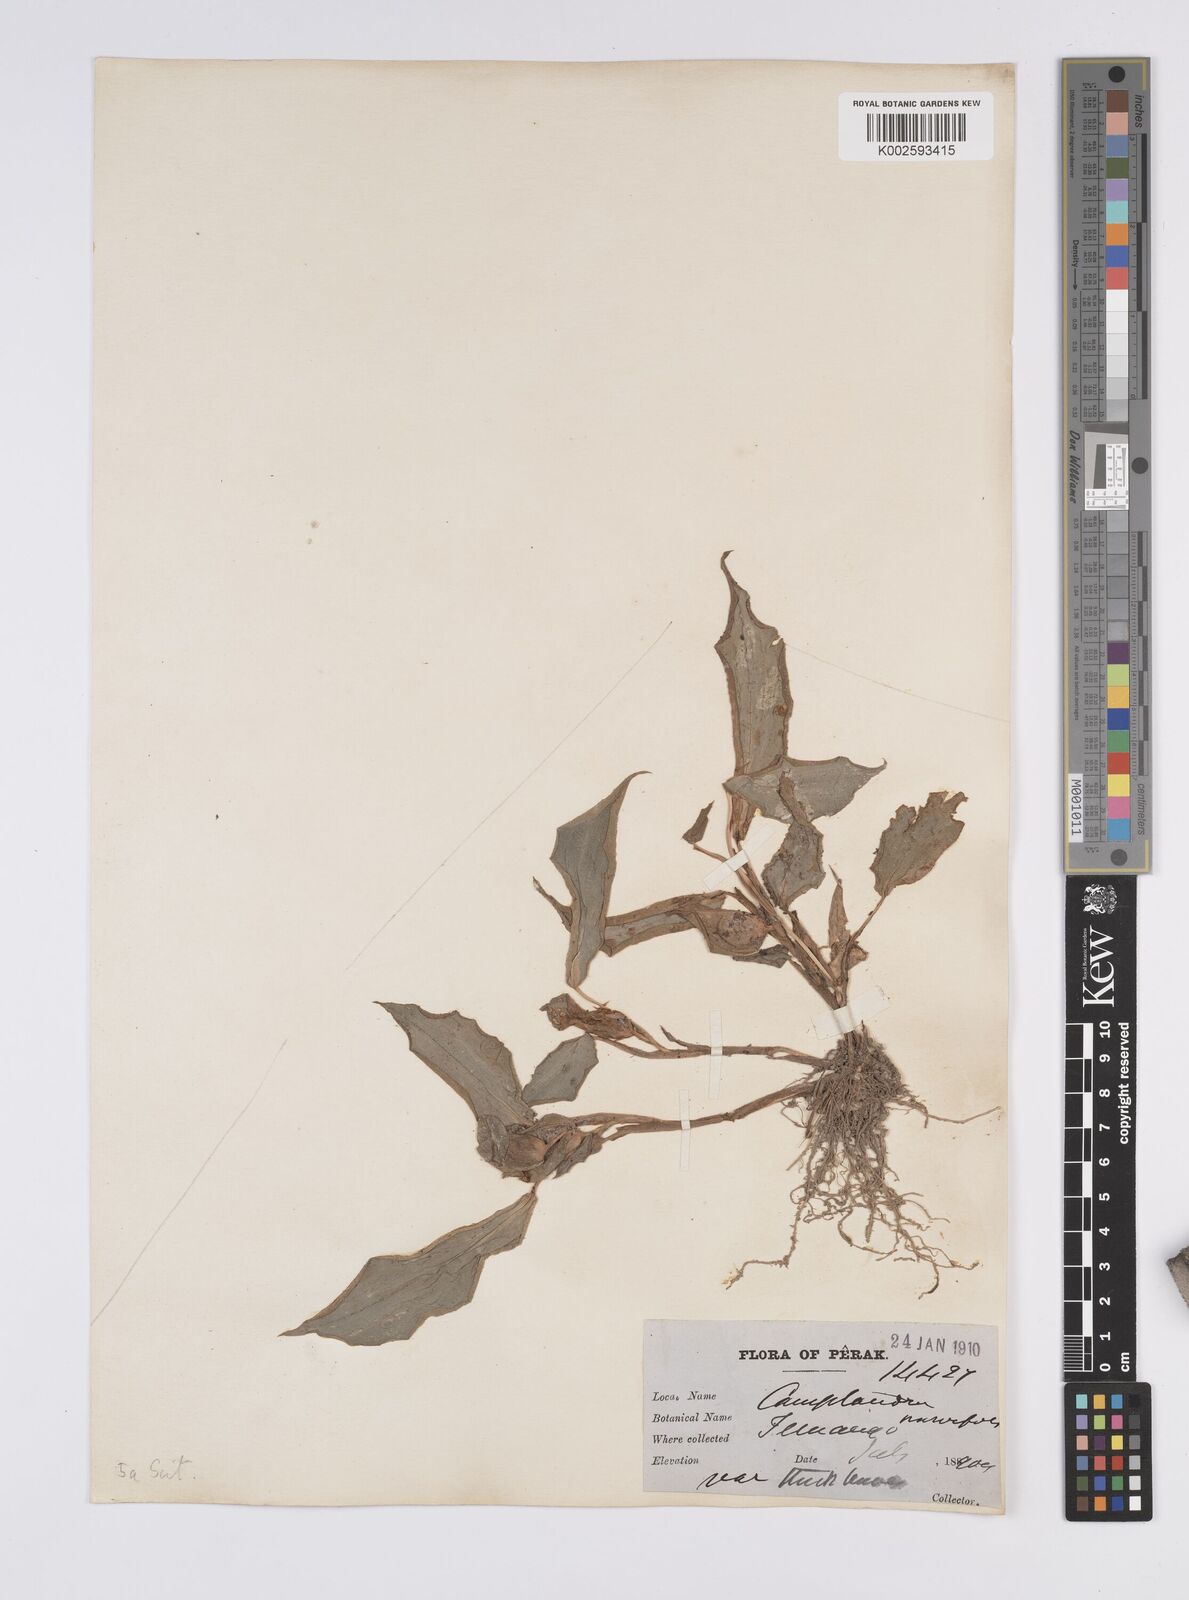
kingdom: Plantae
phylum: Tracheophyta
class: Liliopsida
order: Zingiberales
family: Zingiberaceae
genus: Camptandra
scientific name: Camptandra parvula
